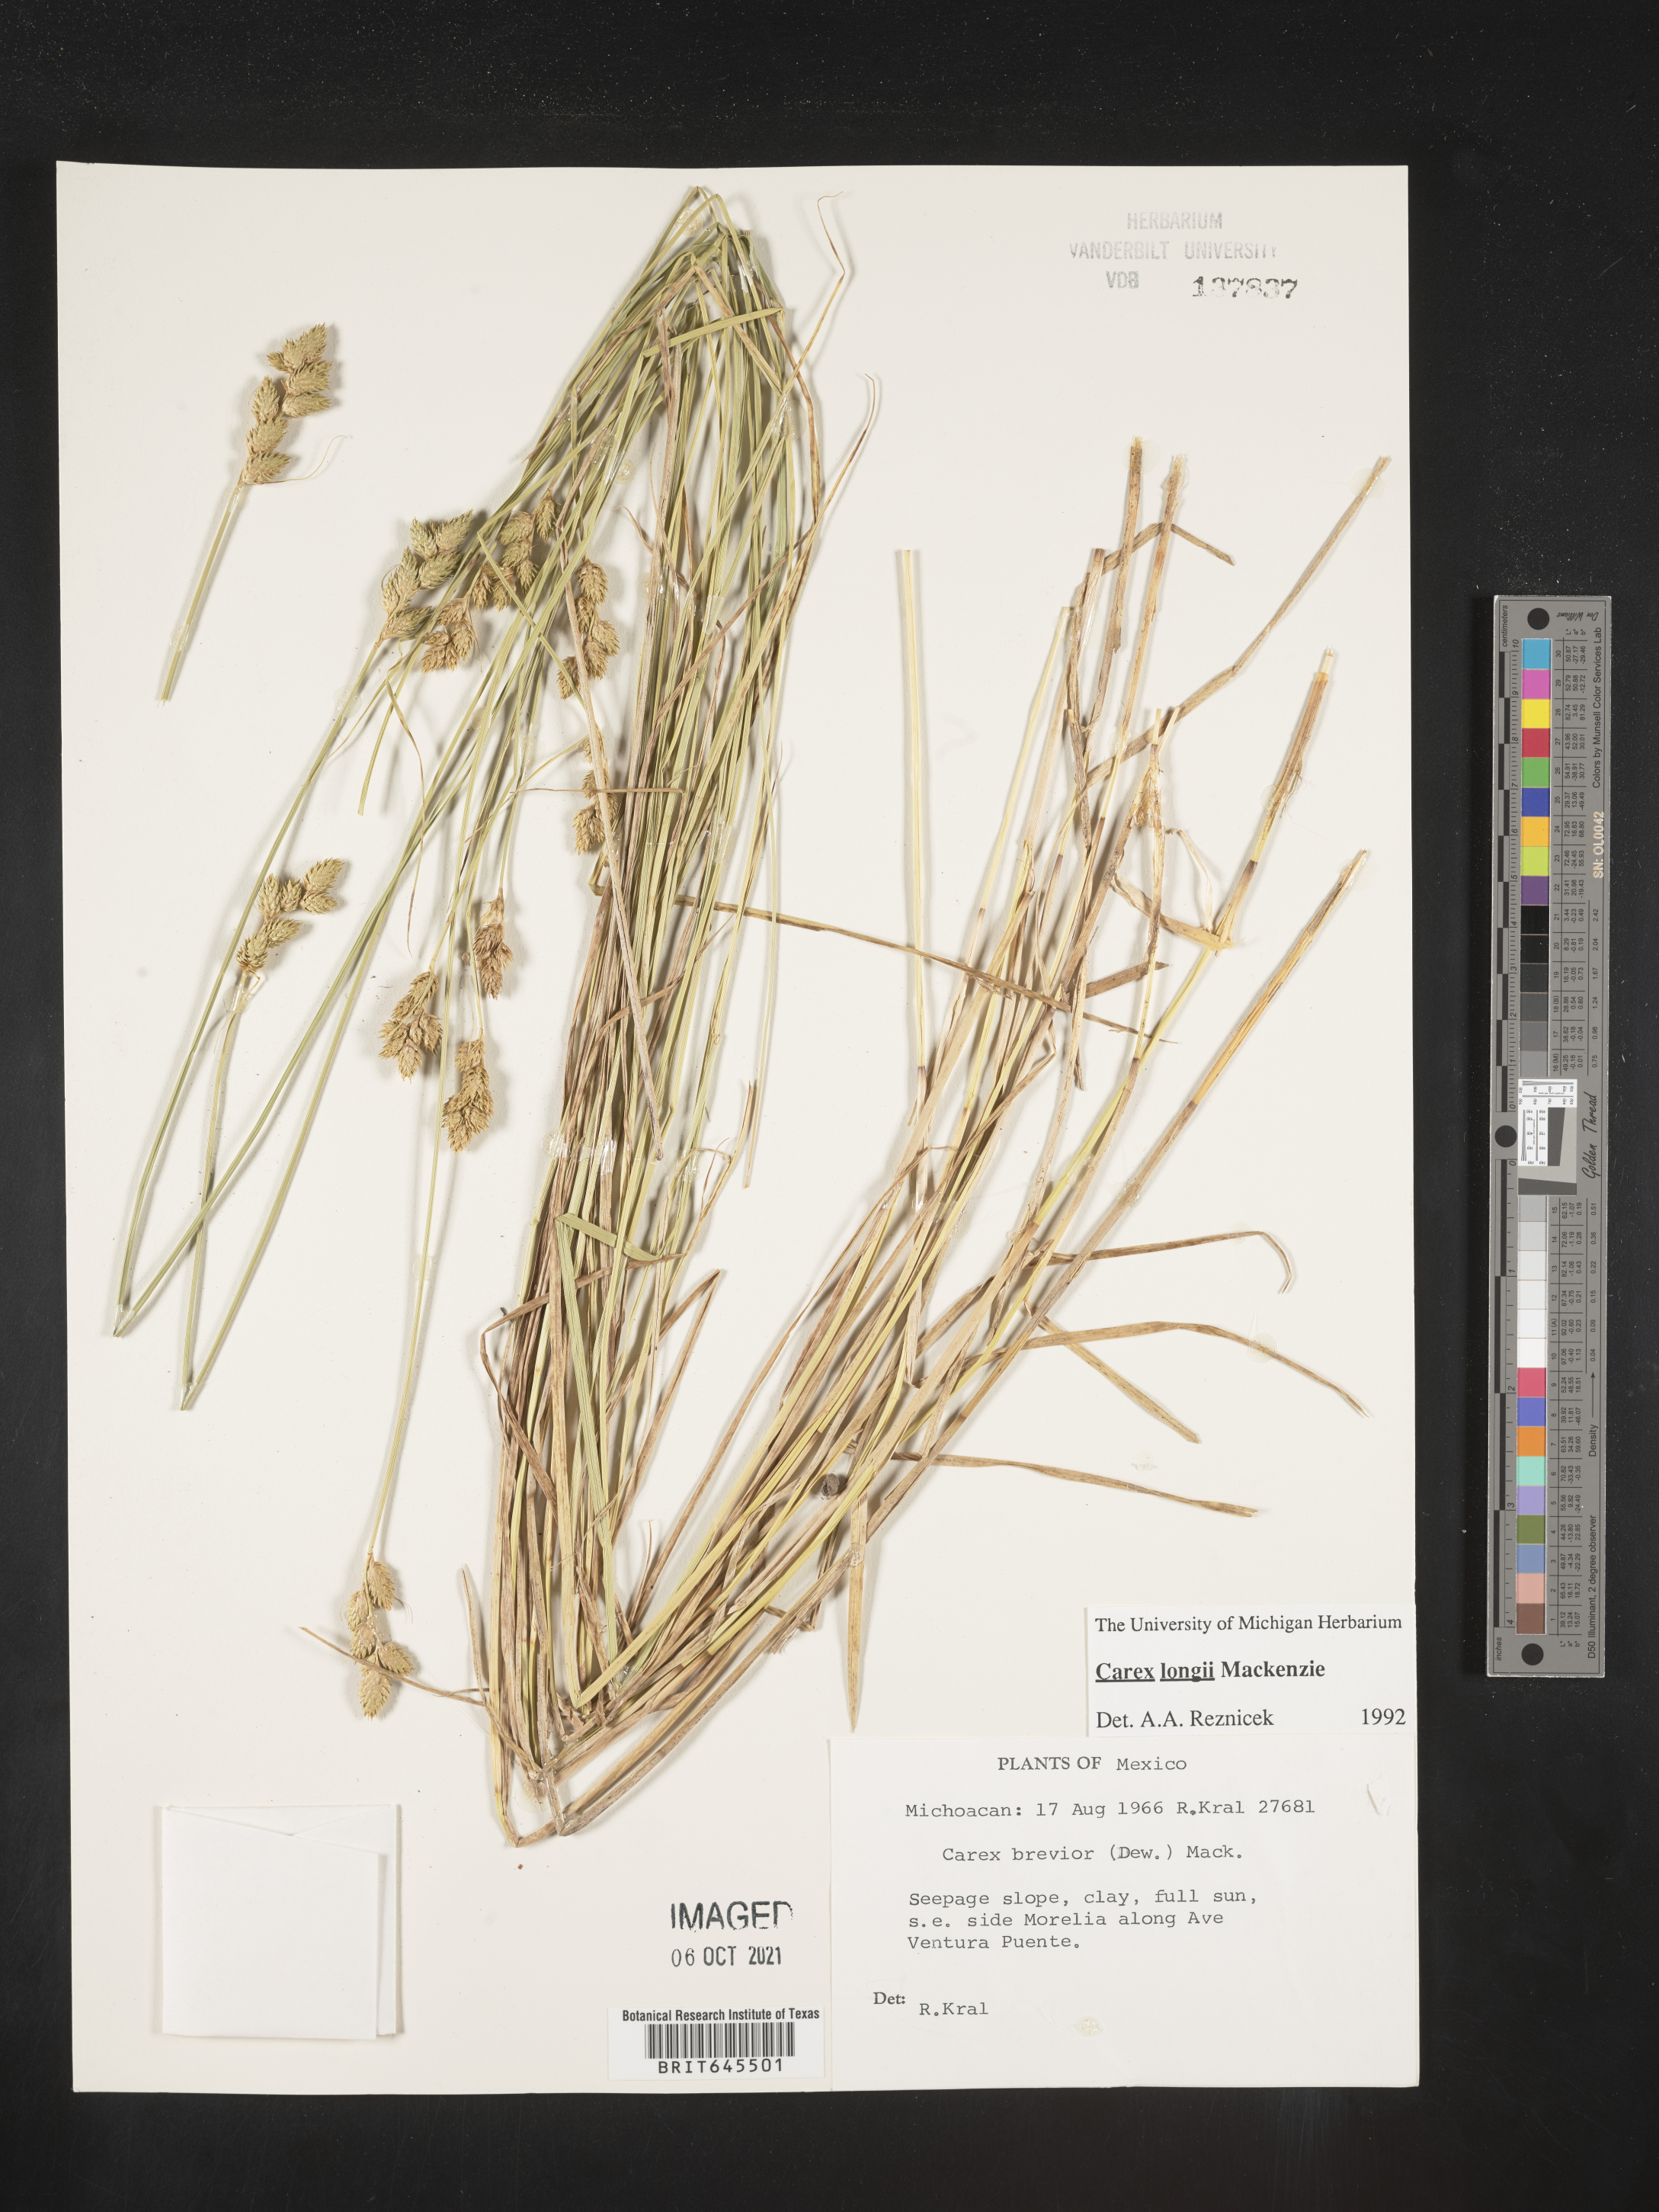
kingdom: Plantae
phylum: Tracheophyta
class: Liliopsida
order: Poales
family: Cyperaceae
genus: Carex
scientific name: Carex
